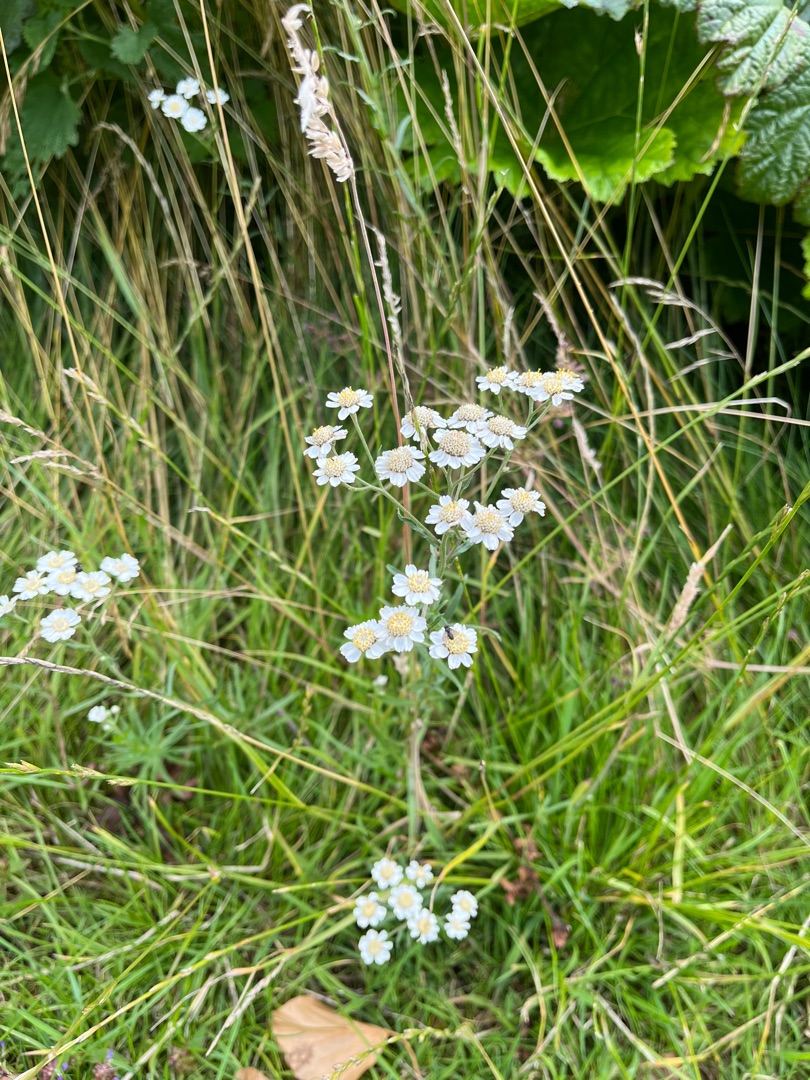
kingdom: Plantae
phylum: Tracheophyta
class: Magnoliopsida
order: Asterales
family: Asteraceae
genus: Achillea
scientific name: Achillea ptarmica
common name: Nyse-røllike
